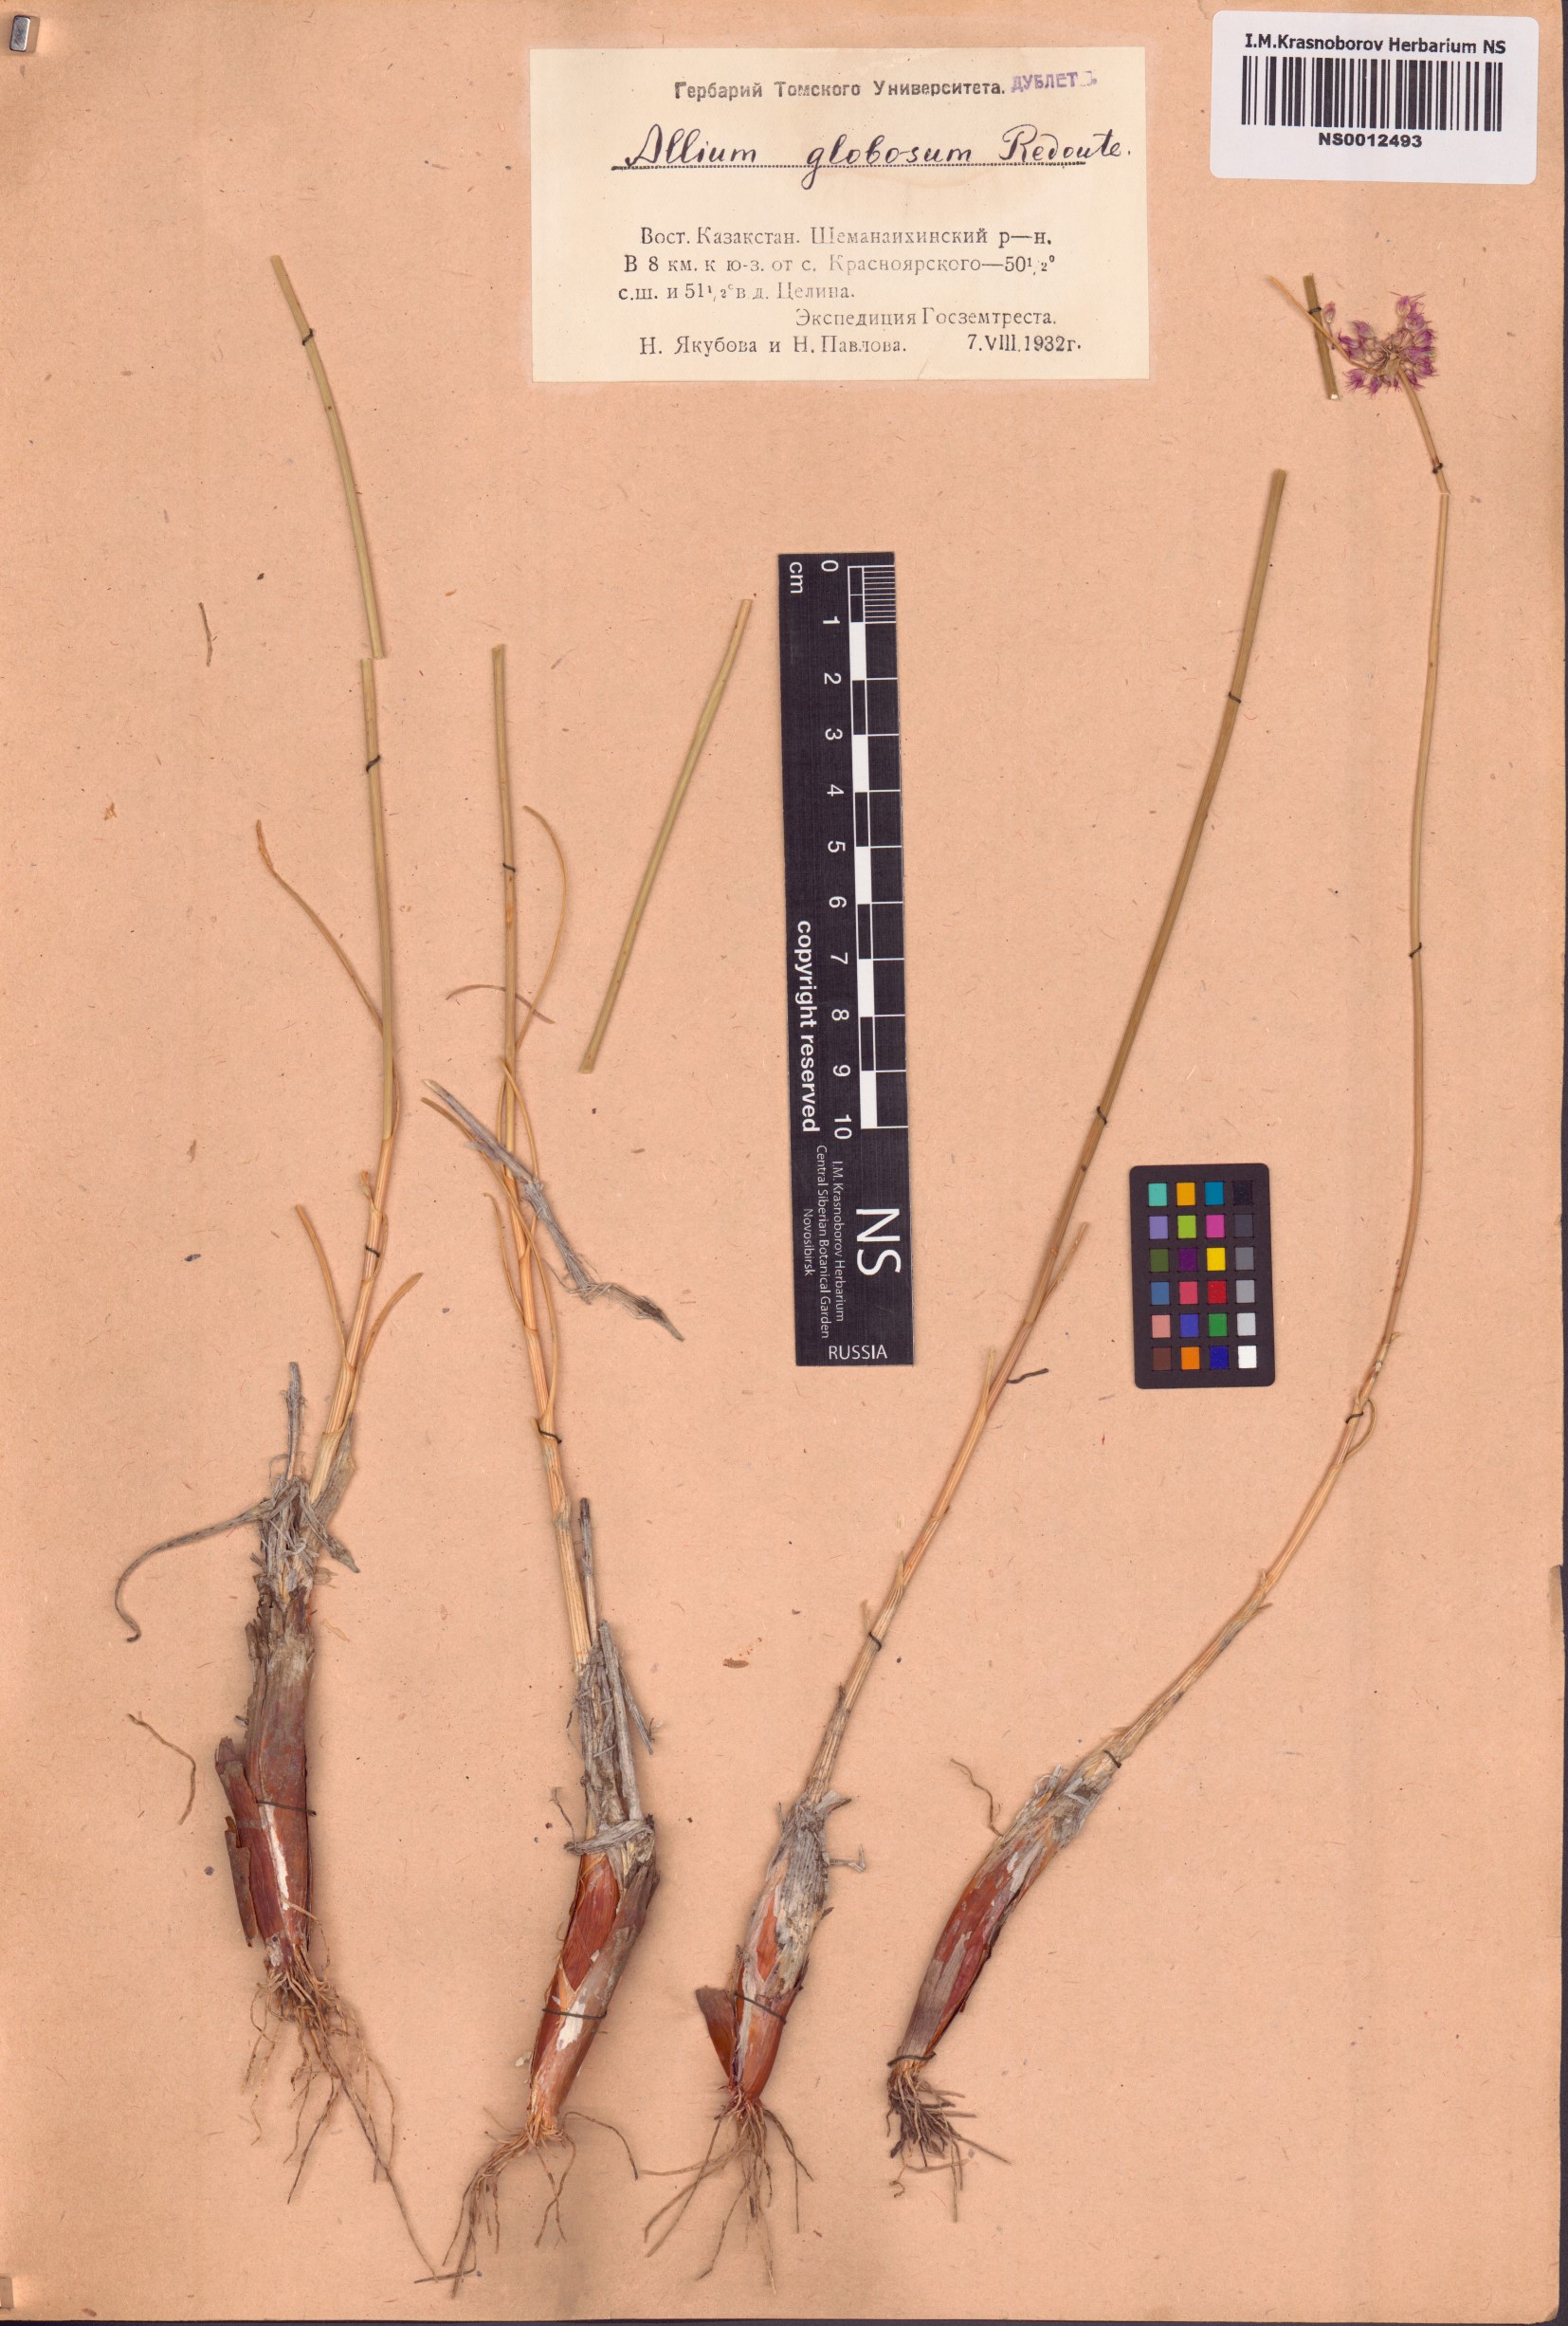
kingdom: Plantae
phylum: Tracheophyta
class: Liliopsida
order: Asparagales
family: Amaryllidaceae
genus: Allium
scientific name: Allium saxatile
